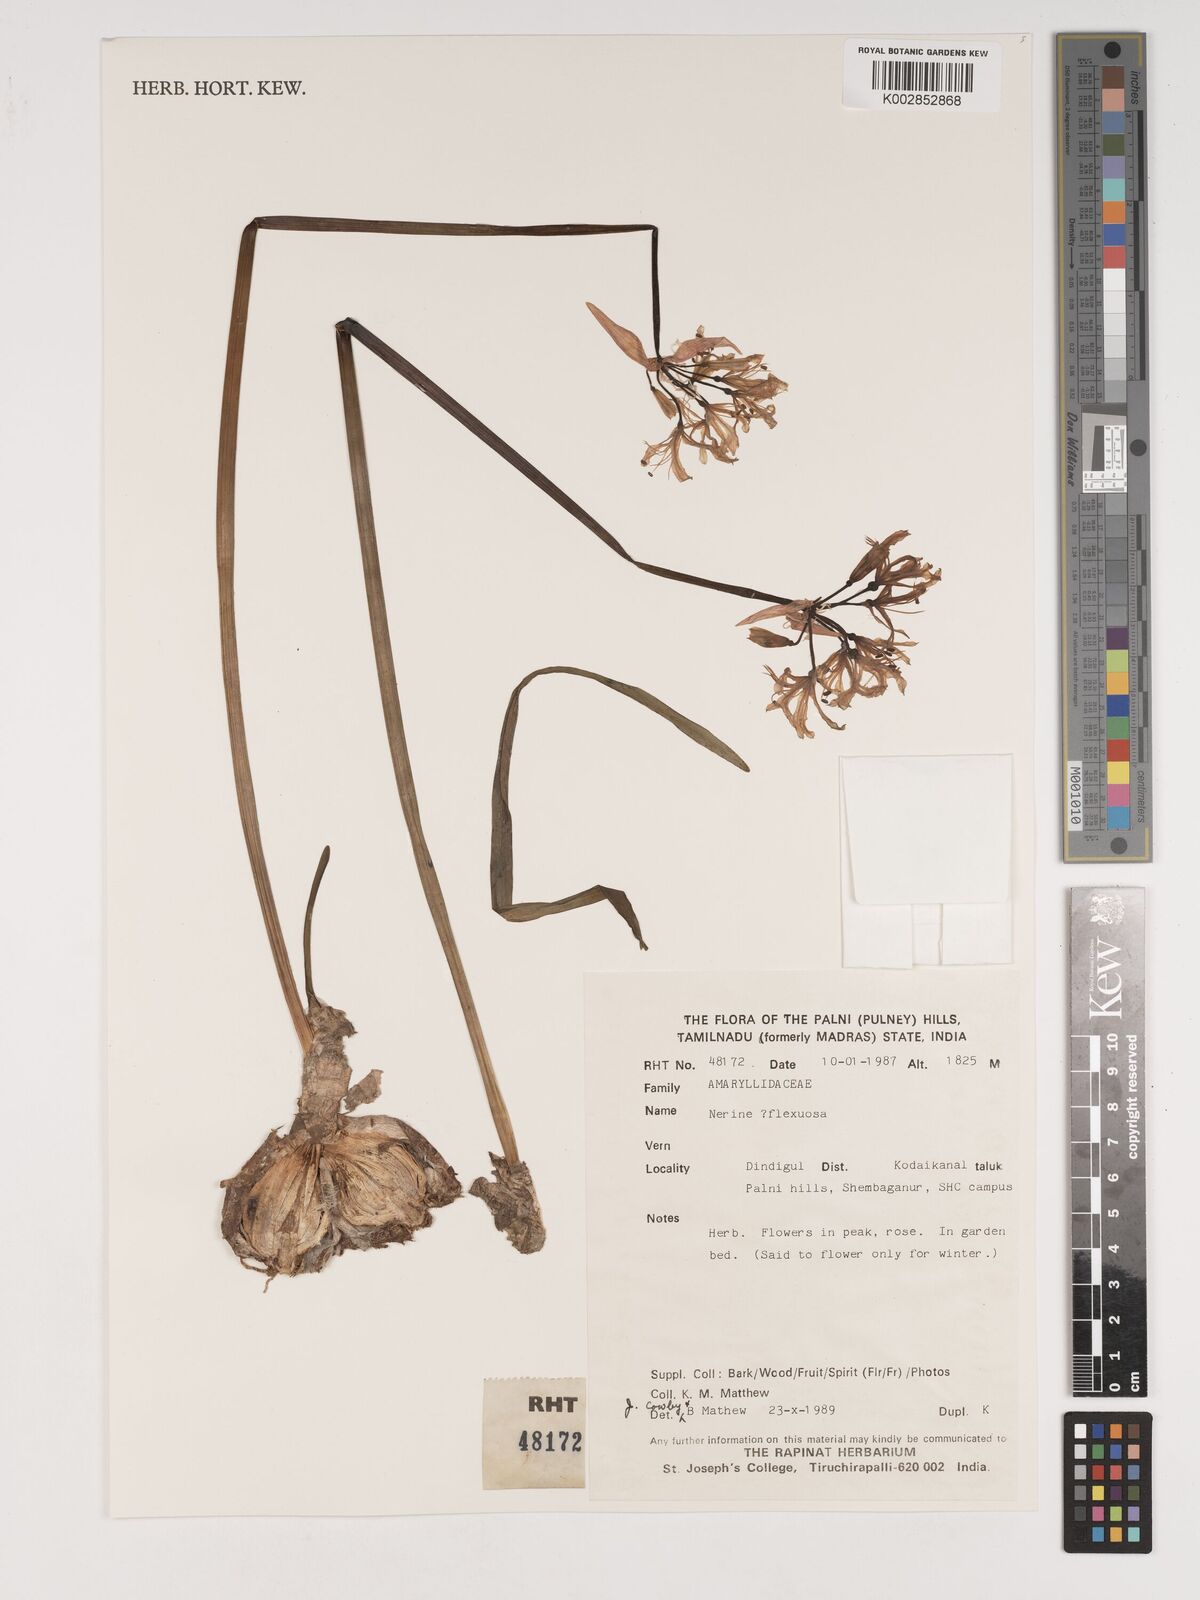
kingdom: Plantae
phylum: Tracheophyta
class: Liliopsida
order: Asparagales
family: Amaryllidaceae
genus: Nerine
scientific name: Nerine undulata
